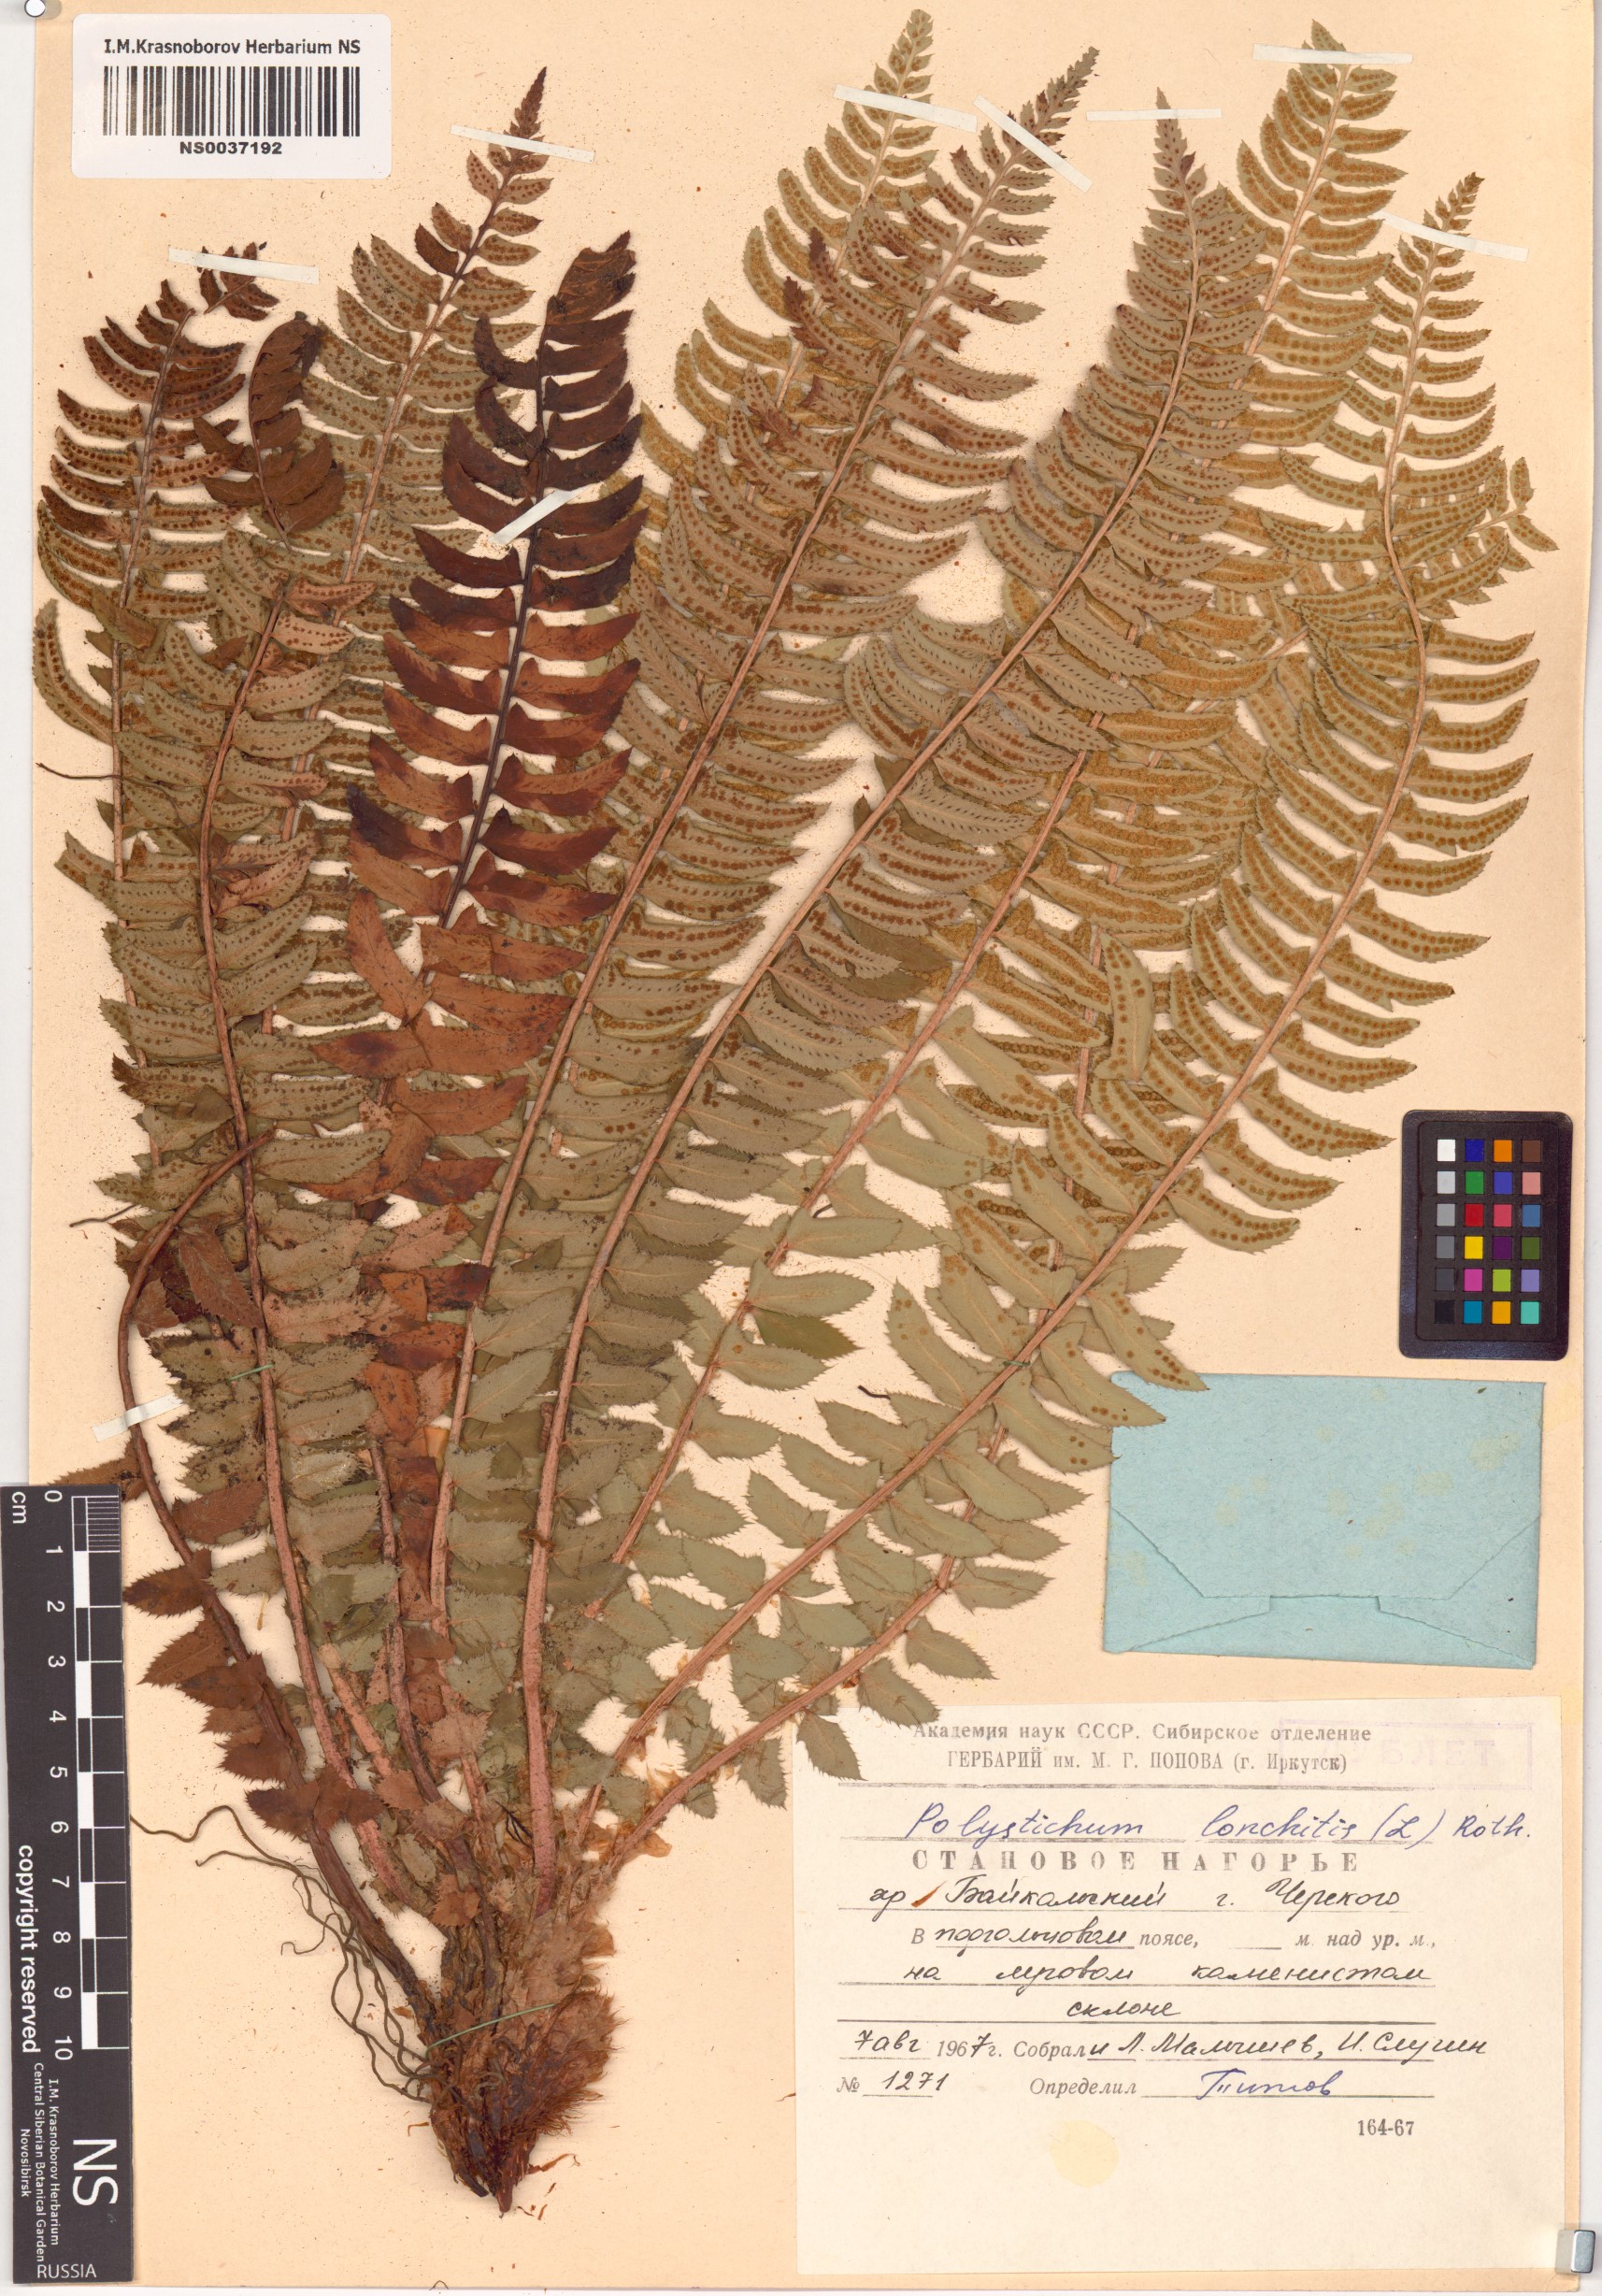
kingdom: Plantae
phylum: Tracheophyta
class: Polypodiopsida
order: Polypodiales
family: Dryopteridaceae
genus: Polystichum
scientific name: Polystichum lonchitis
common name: Holly fern
